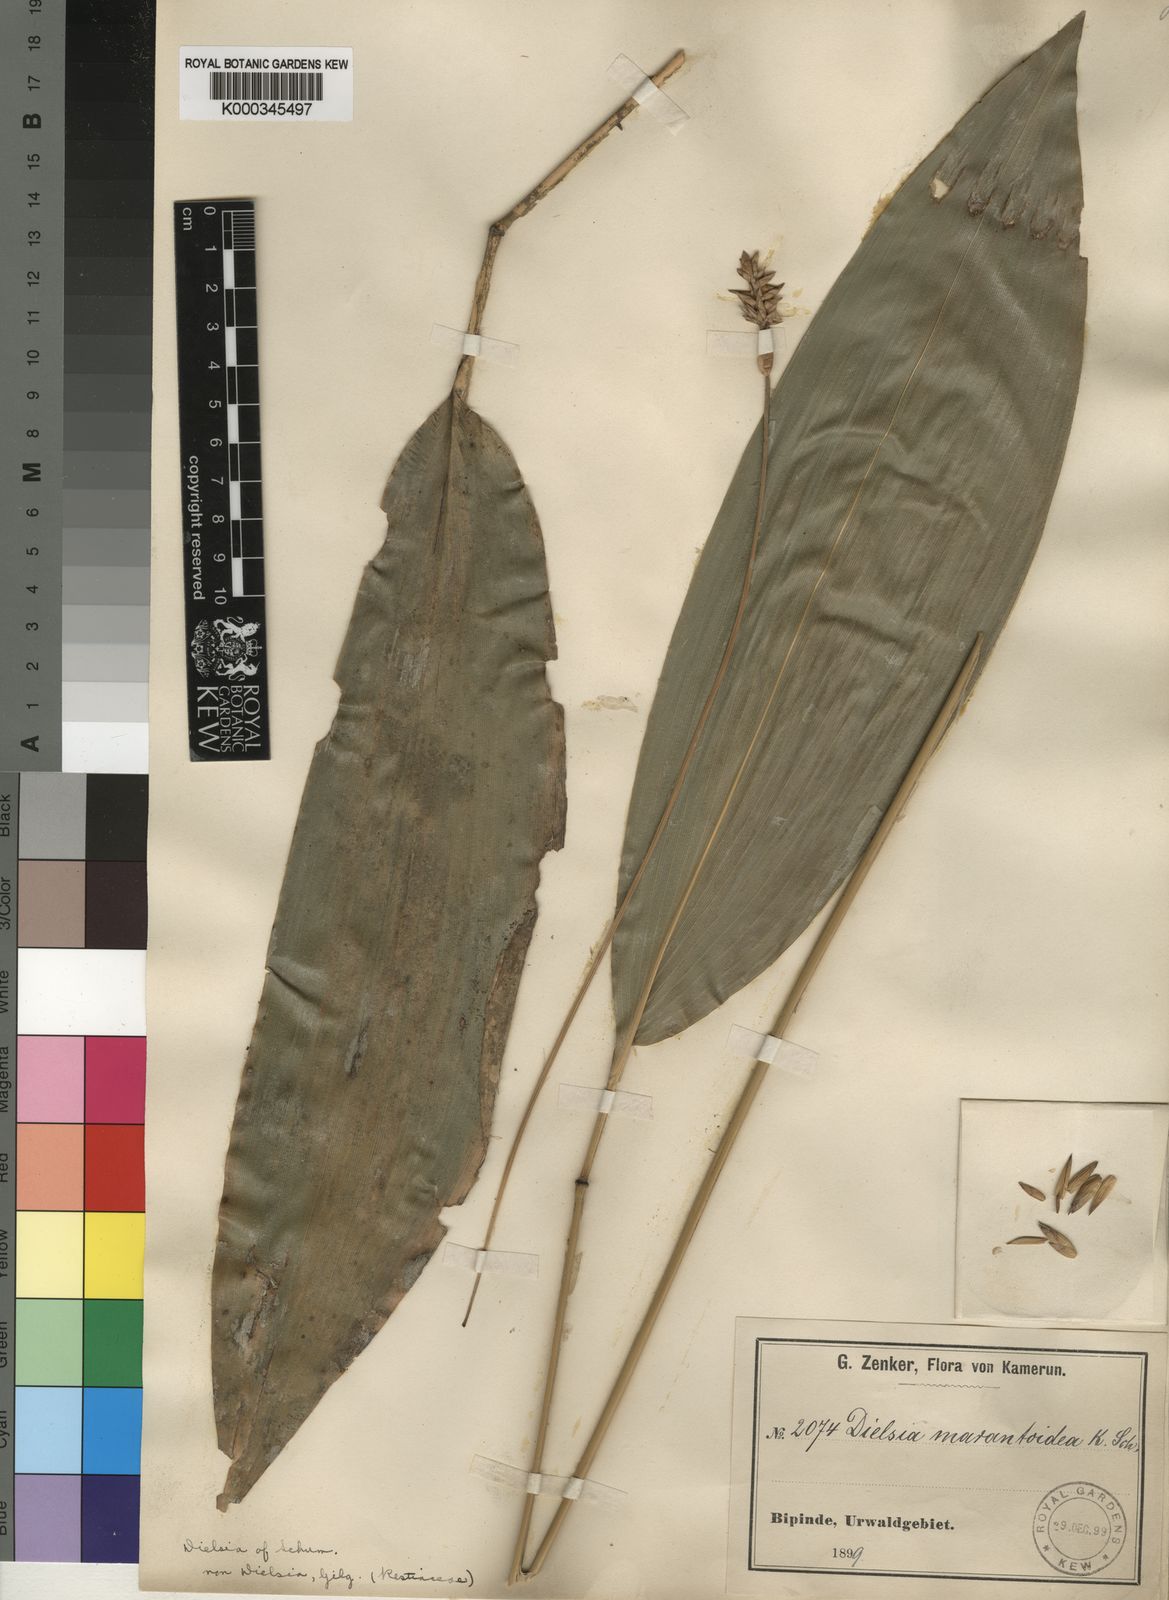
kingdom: Plantae
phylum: Tracheophyta
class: Liliopsida
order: Poales
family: Poaceae
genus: Puelia
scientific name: Puelia schumanniana
